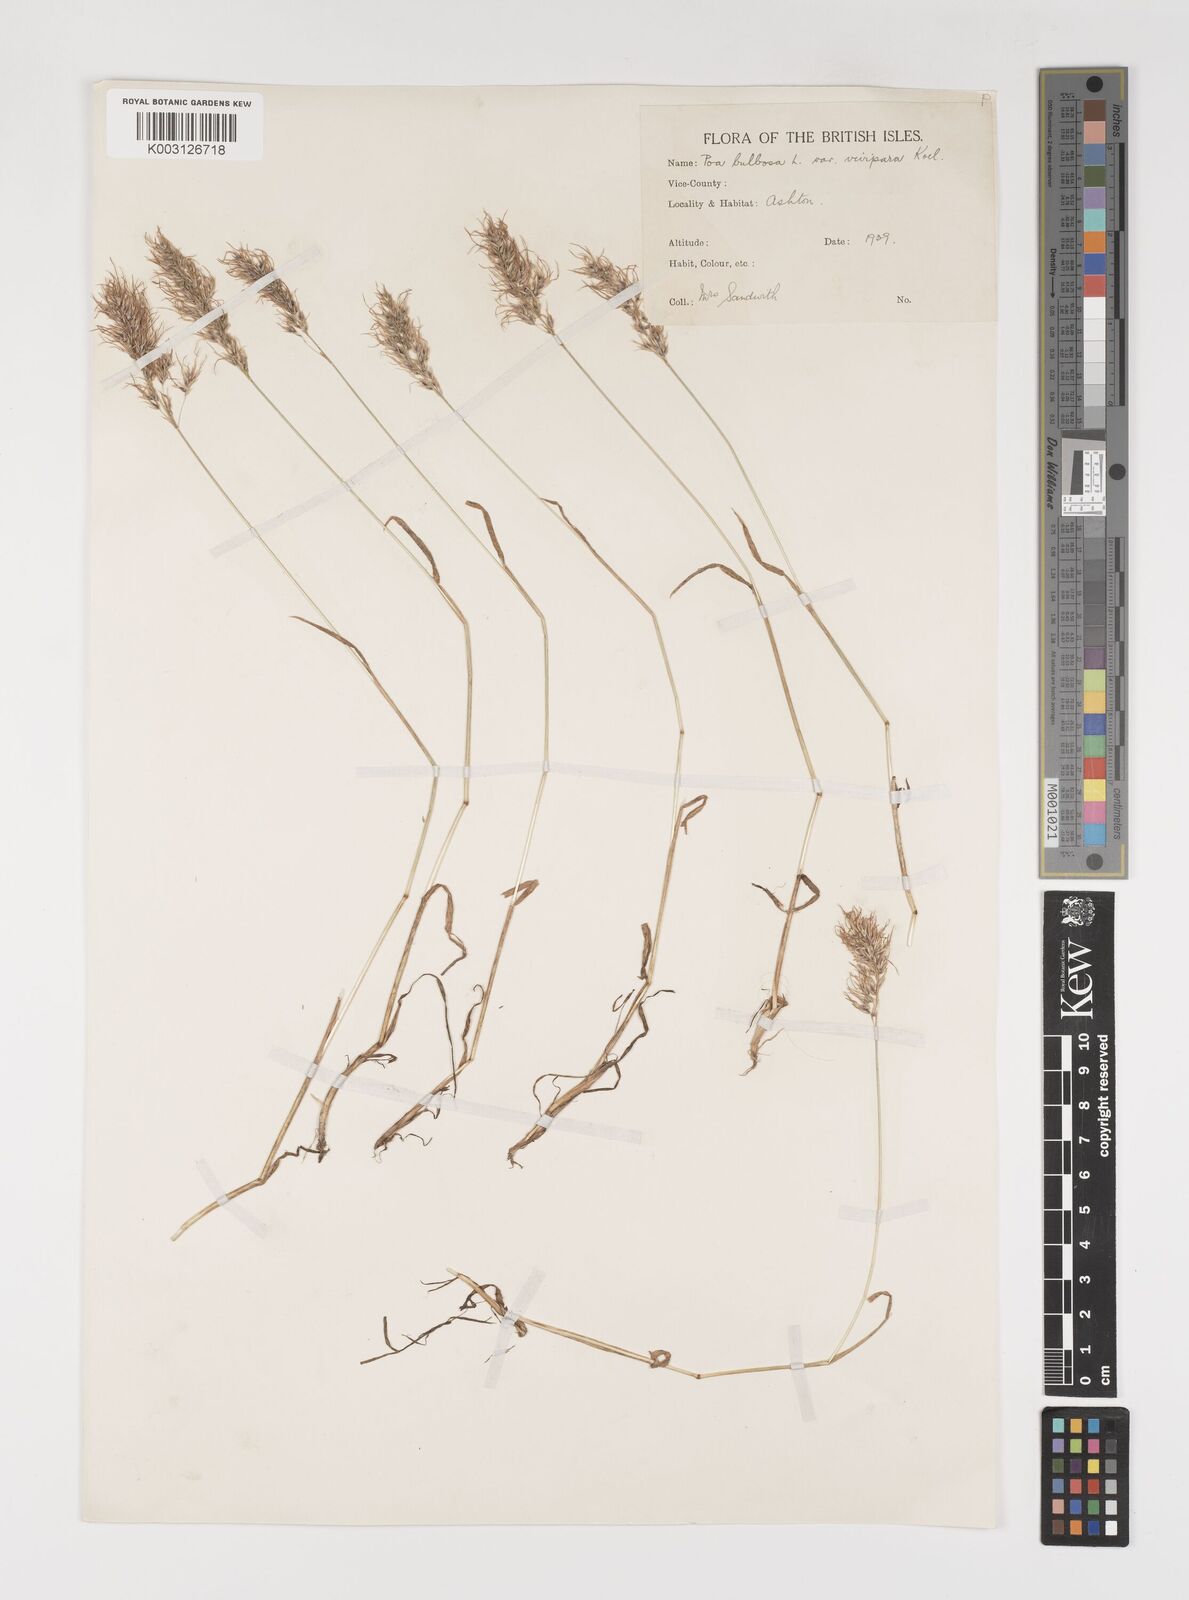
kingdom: Plantae
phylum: Tracheophyta
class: Liliopsida
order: Poales
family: Poaceae
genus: Poa
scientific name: Poa bulbosa
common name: Bulbous bluegrass
